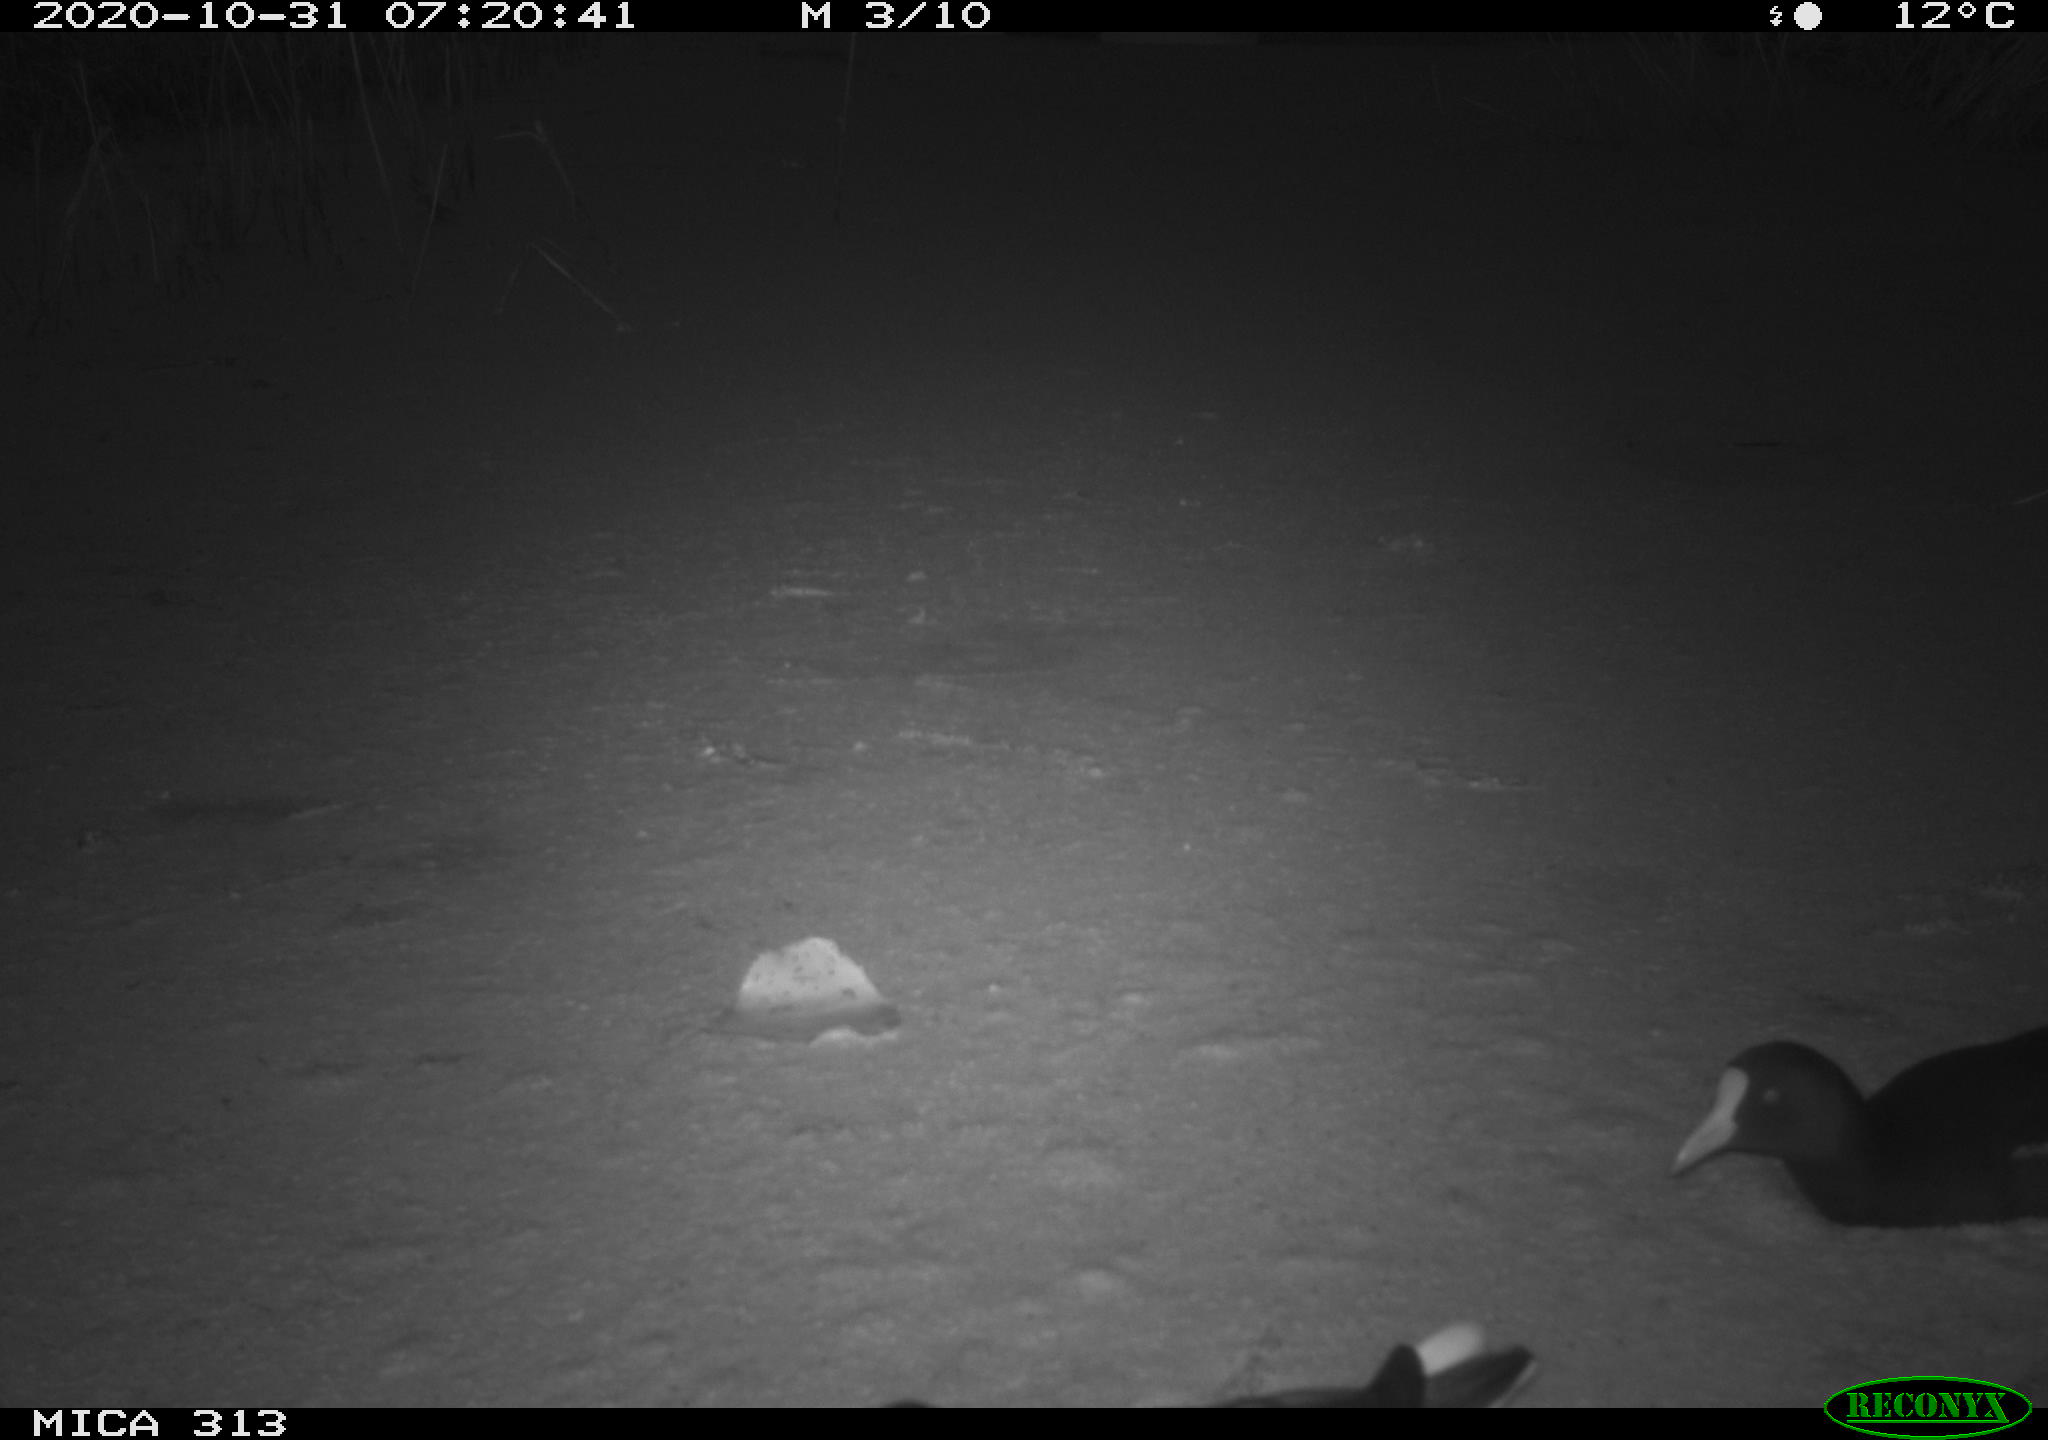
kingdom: Animalia
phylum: Chordata
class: Aves
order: Gruiformes
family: Rallidae
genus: Gallinula
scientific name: Gallinula chloropus
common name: Common moorhen
